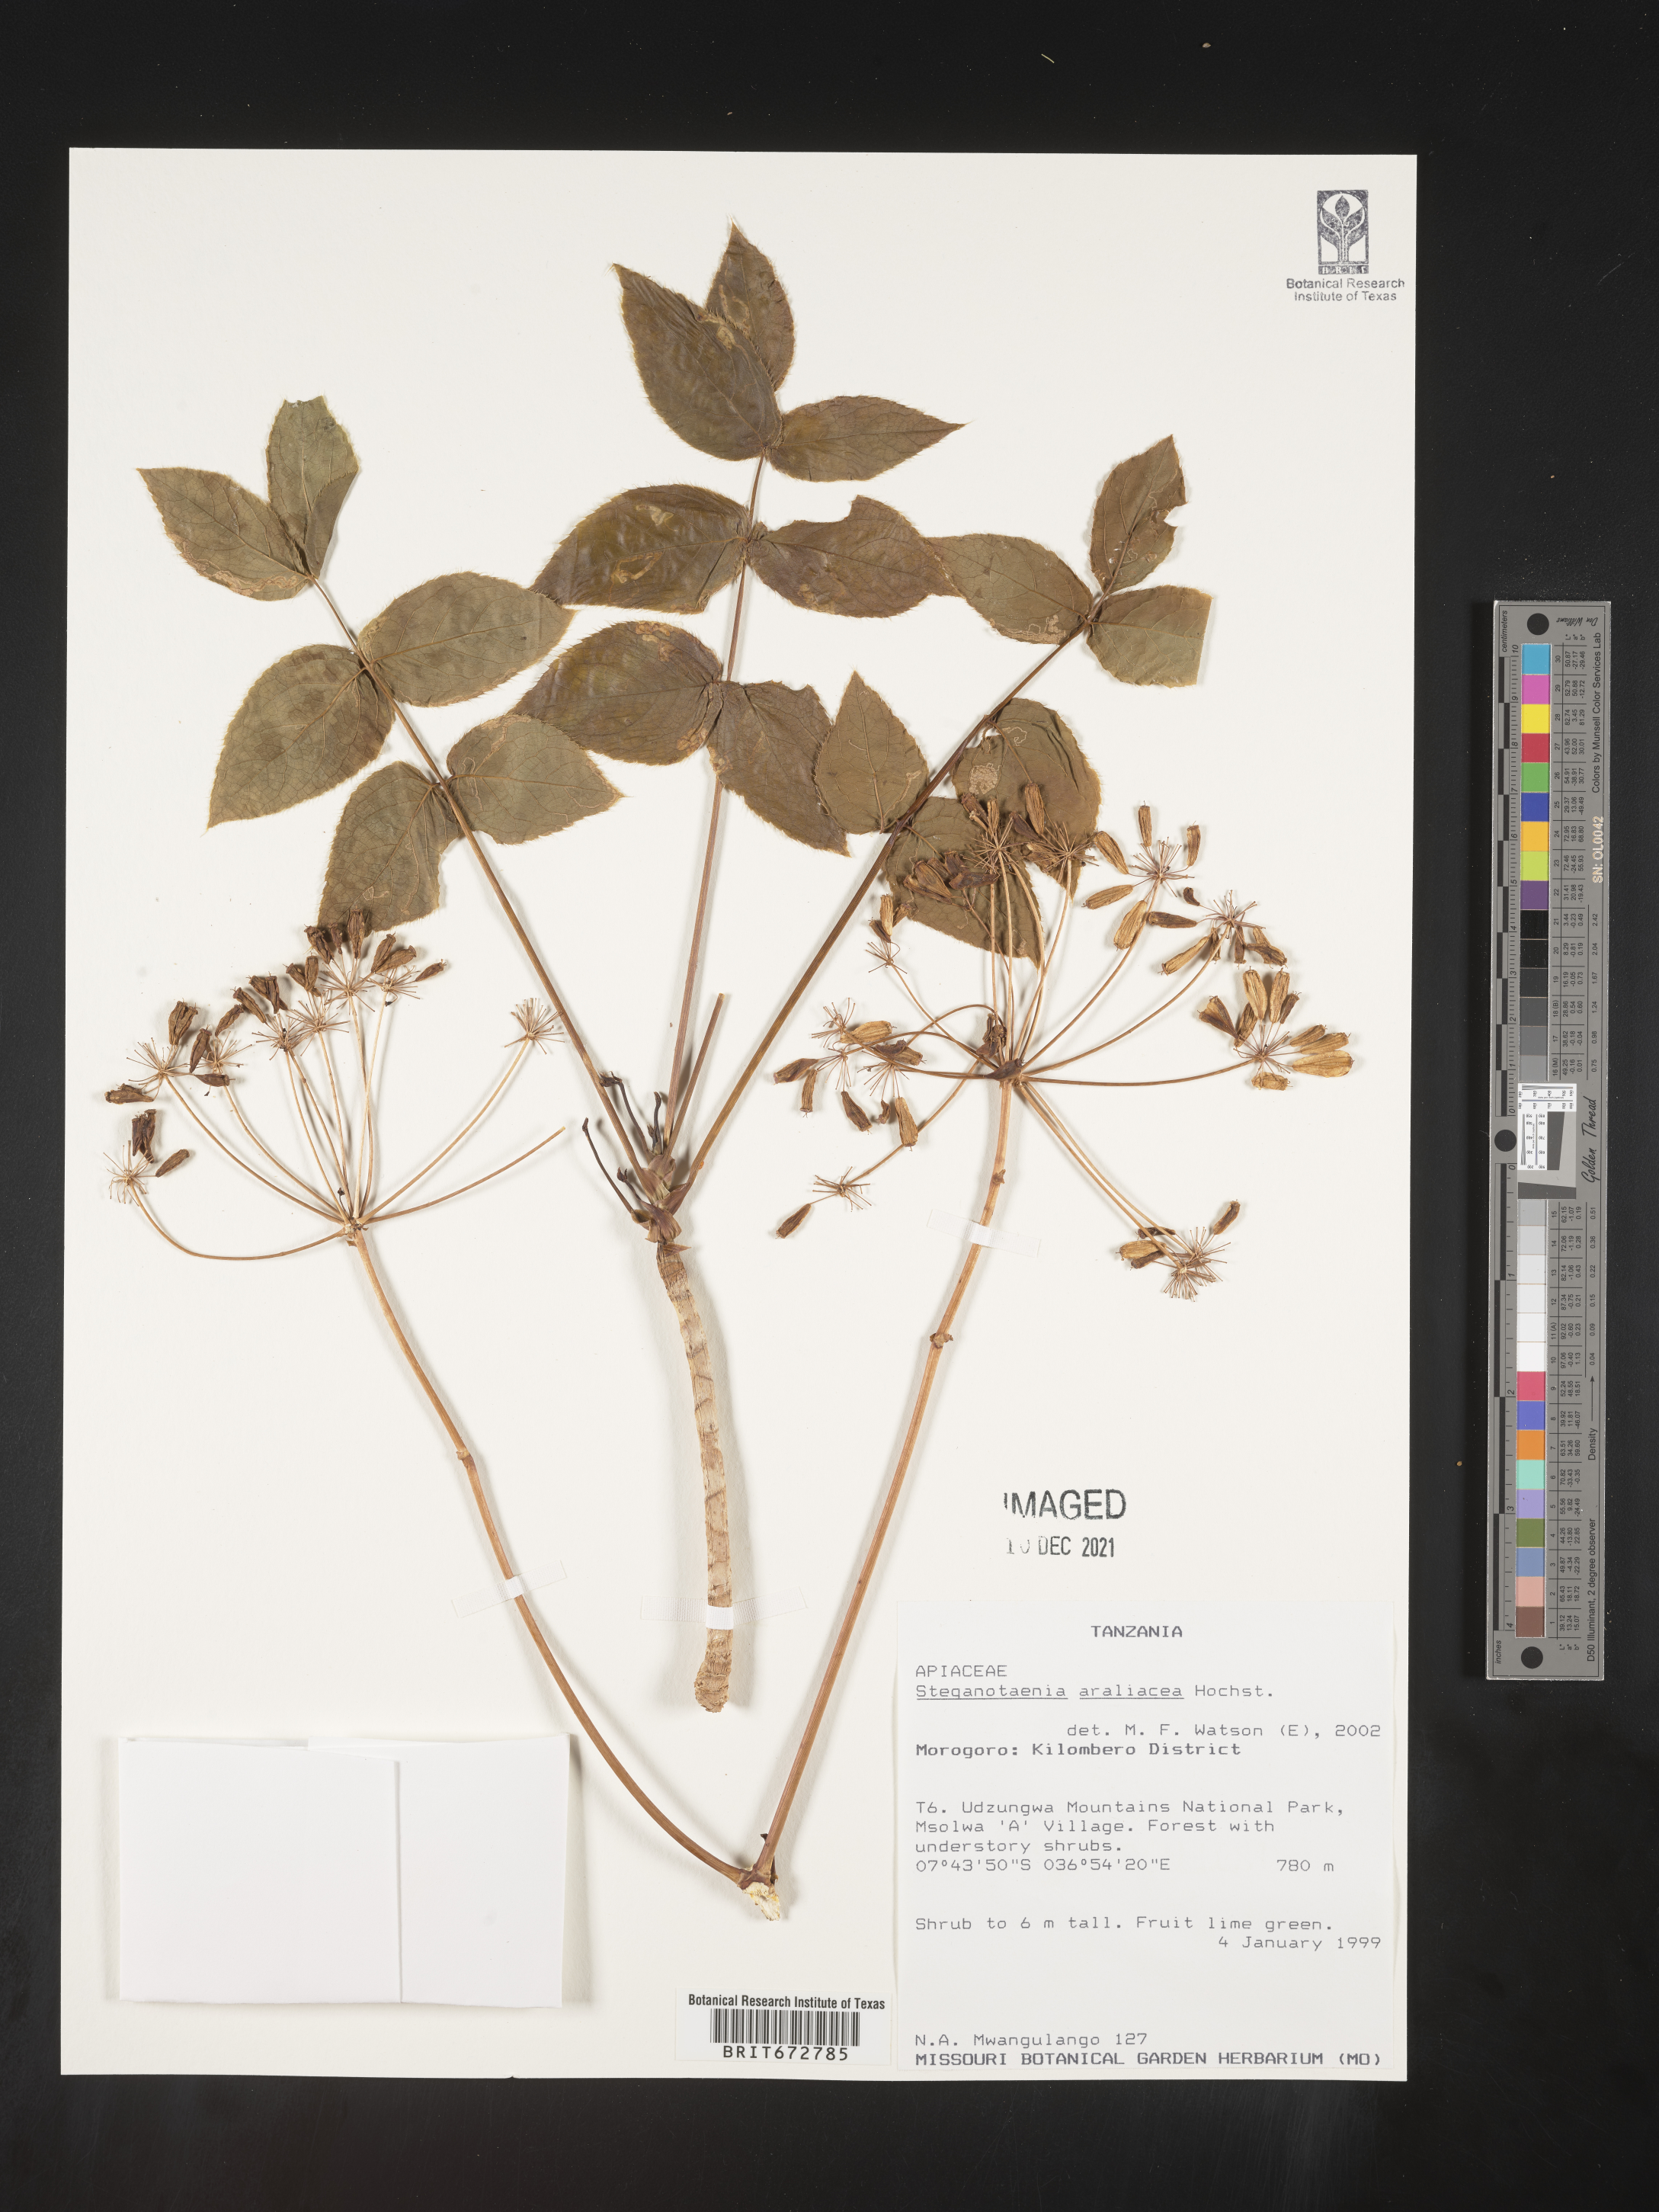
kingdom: Plantae
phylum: Tracheophyta
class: Magnoliopsida
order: Apiales
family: Apiaceae
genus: Steganotaenia
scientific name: Steganotaenia
